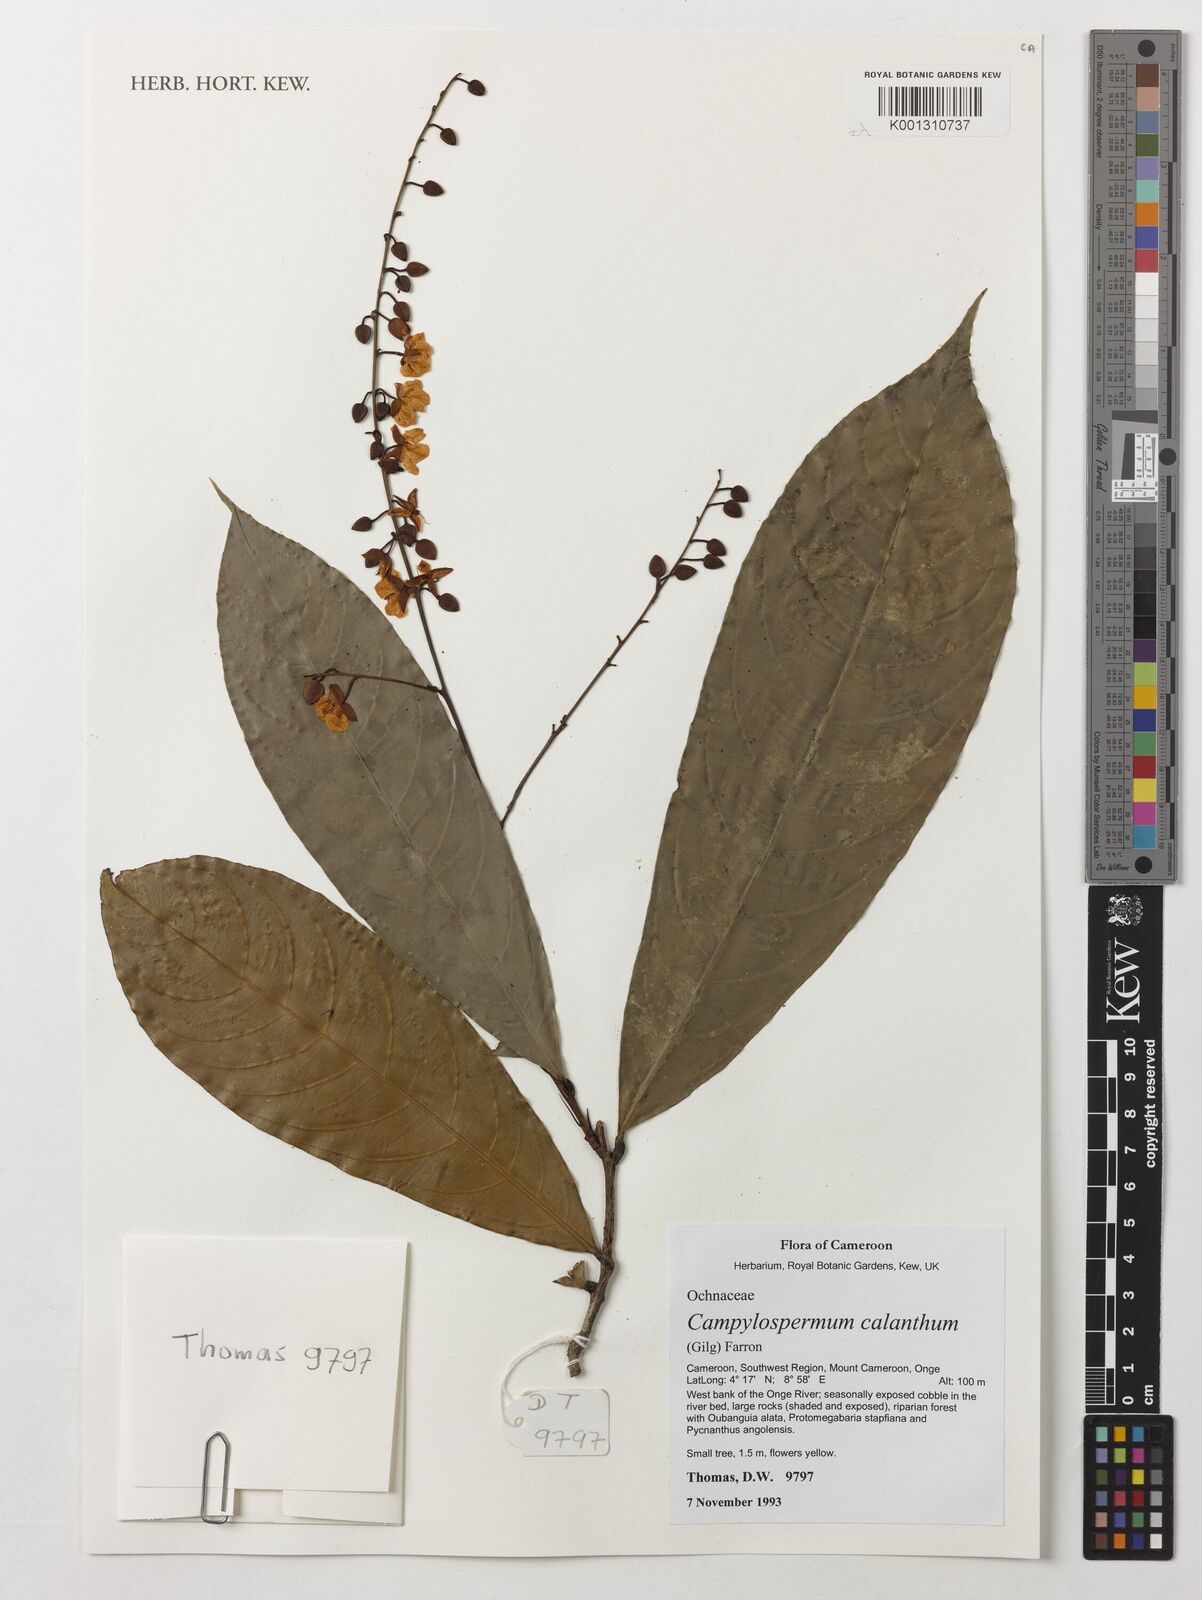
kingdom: Plantae
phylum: Tracheophyta
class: Magnoliopsida
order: Malpighiales
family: Ochnaceae
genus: Campylospermum
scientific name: Campylospermum calanthum
